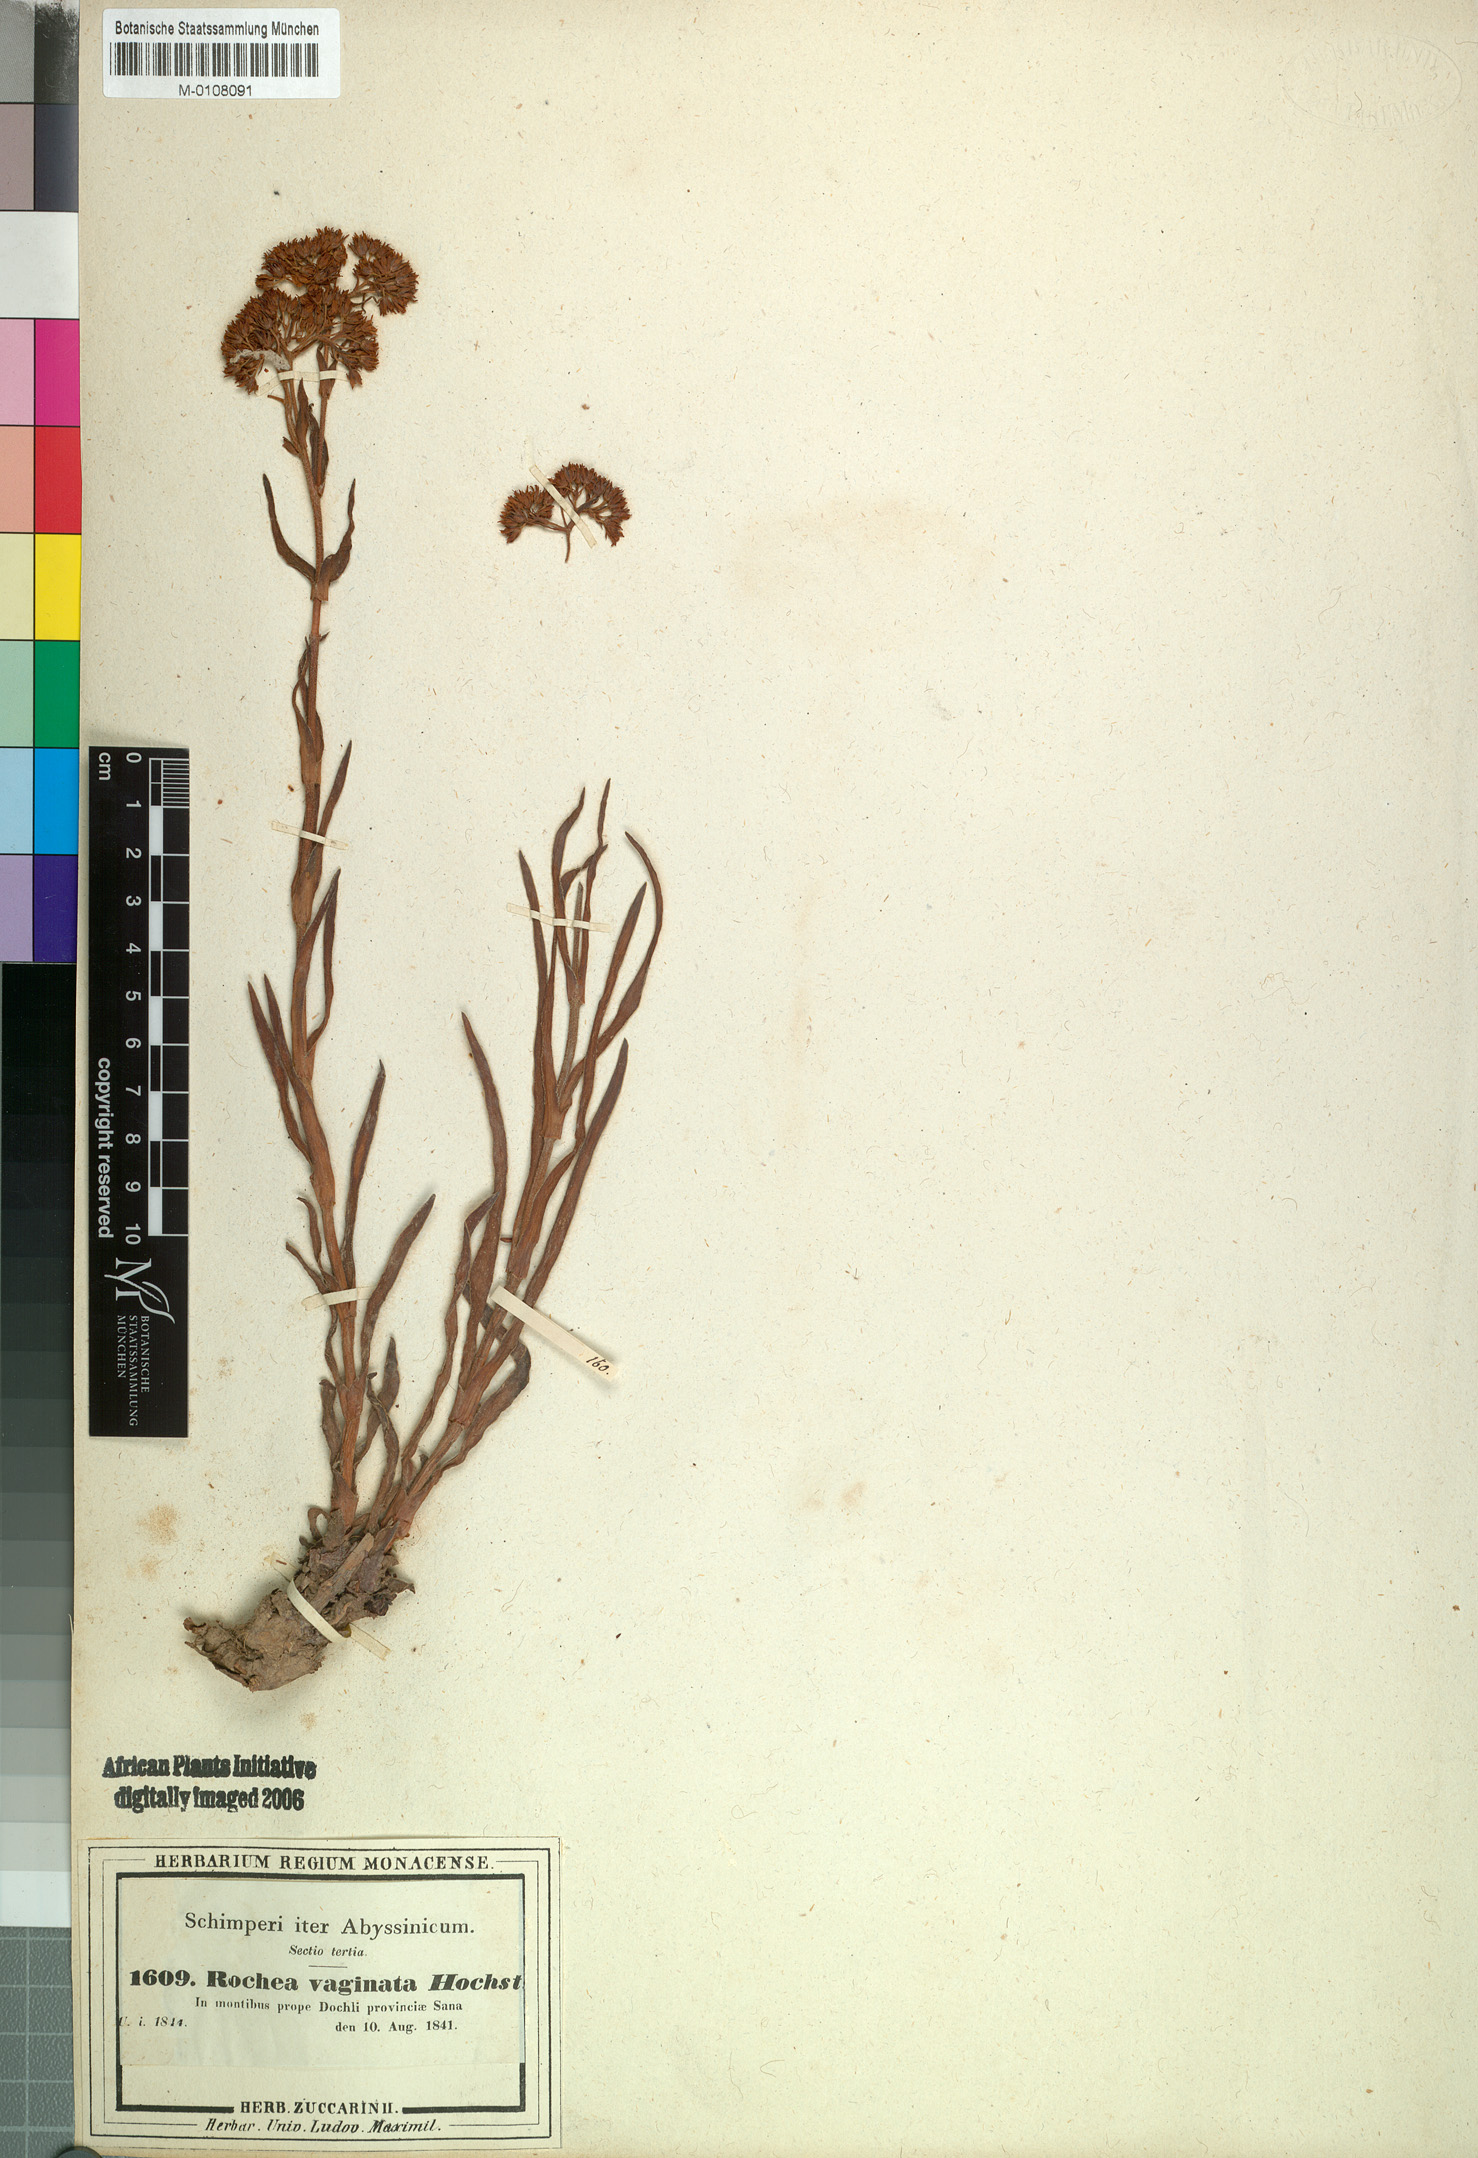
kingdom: Plantae
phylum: Tracheophyta
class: Magnoliopsida
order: Saxifragales
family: Crassulaceae
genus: Crassula
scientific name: Crassula alba
